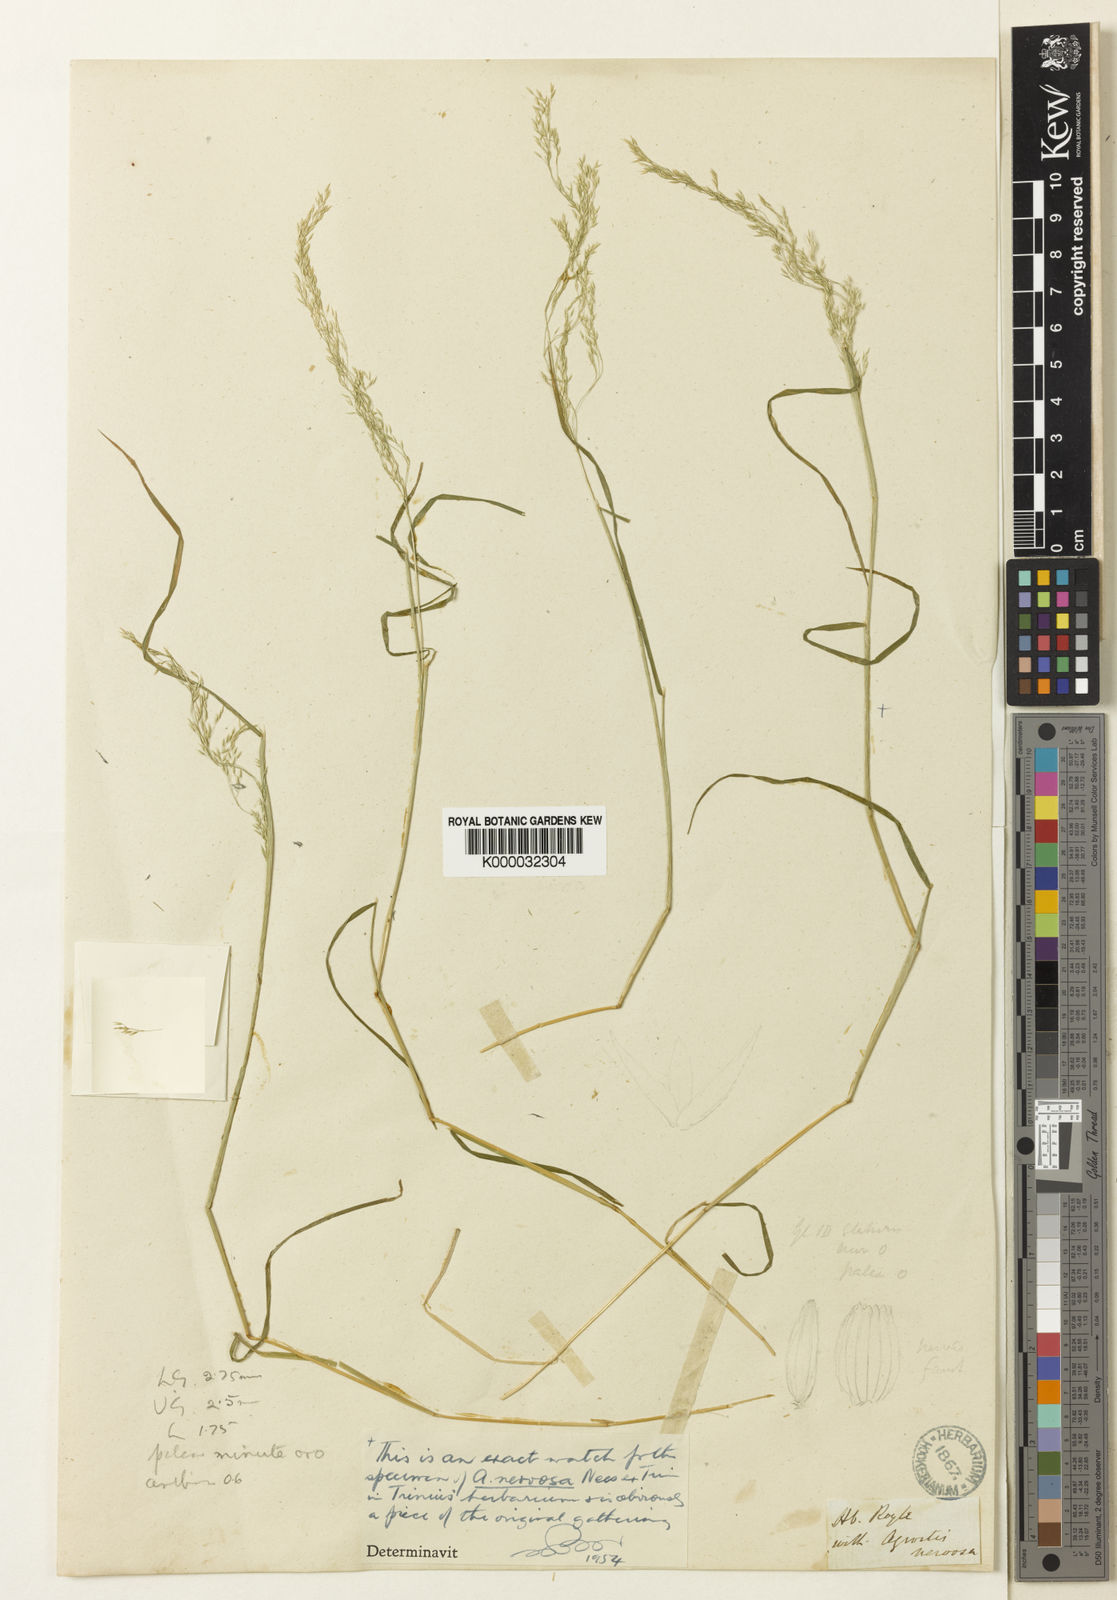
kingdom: Plantae
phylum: Tracheophyta
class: Liliopsida
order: Poales
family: Poaceae
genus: Agrostis
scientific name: Agrostis nervosa
